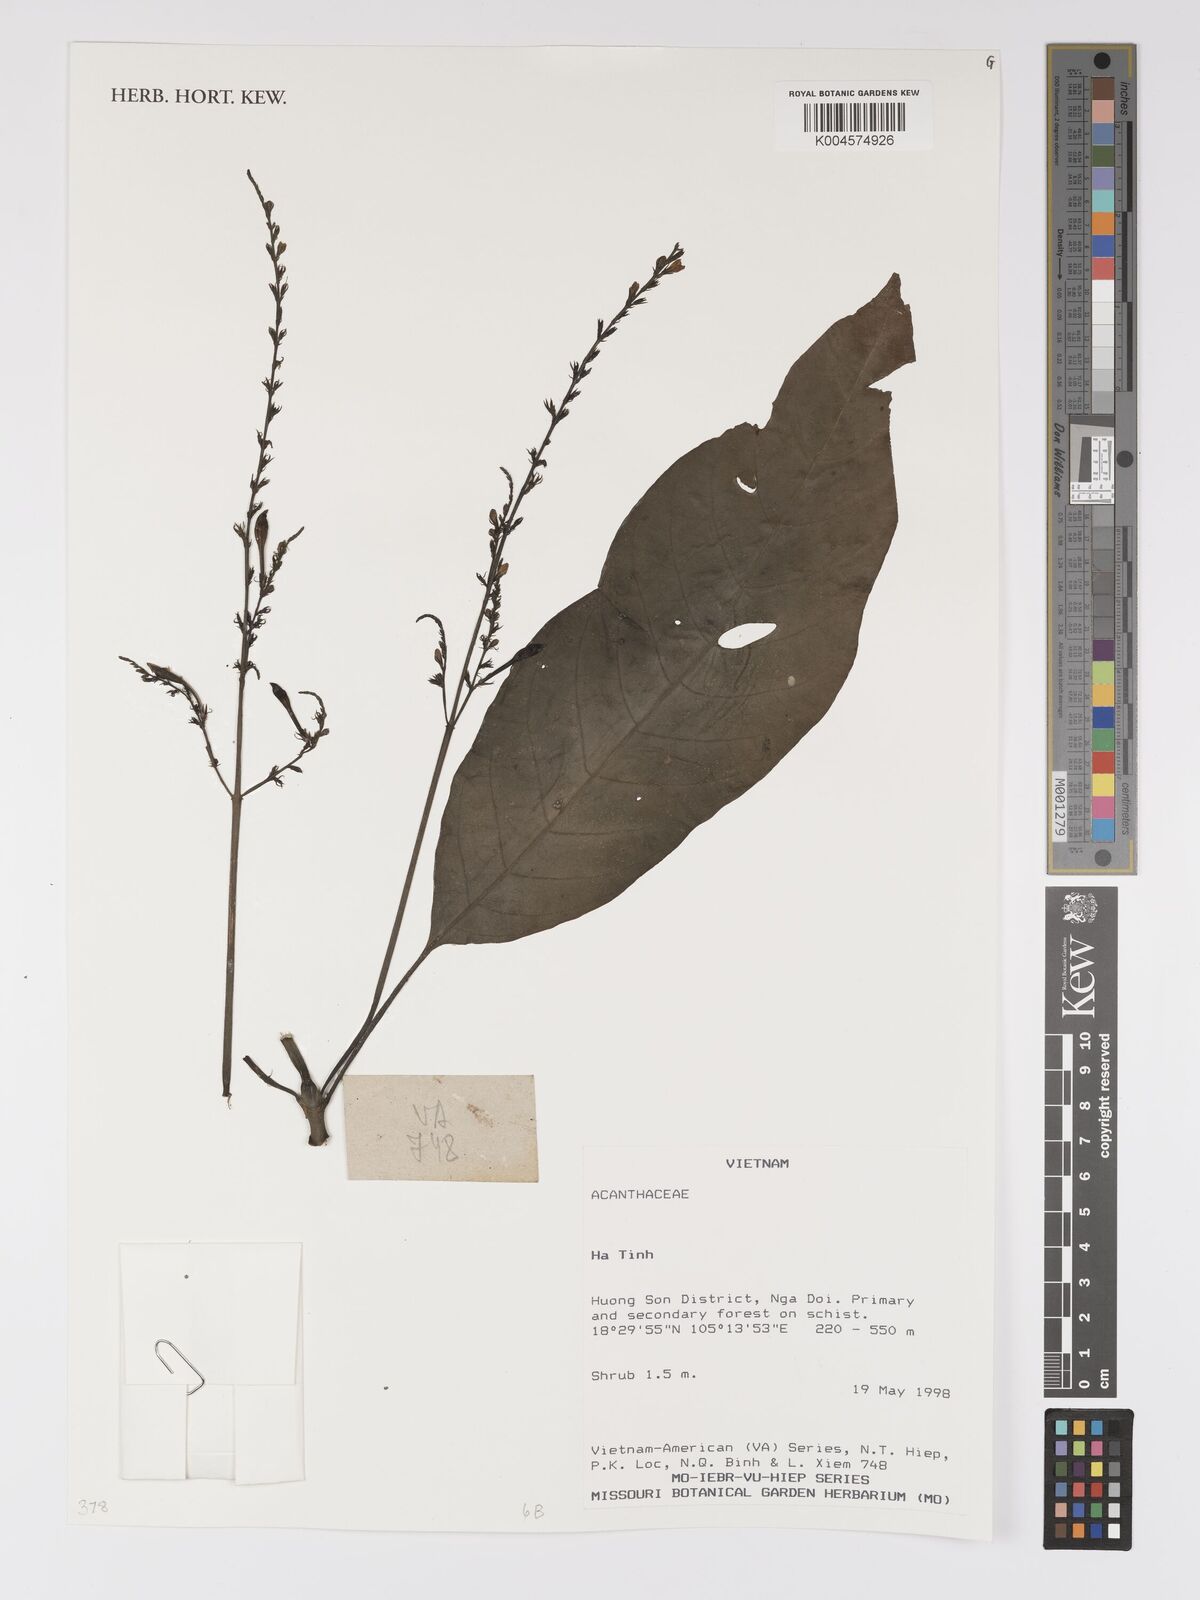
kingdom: Plantae
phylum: Tracheophyta
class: Magnoliopsida
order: Lamiales
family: Acanthaceae
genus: Pseuderanthemum
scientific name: Pseuderanthemum
